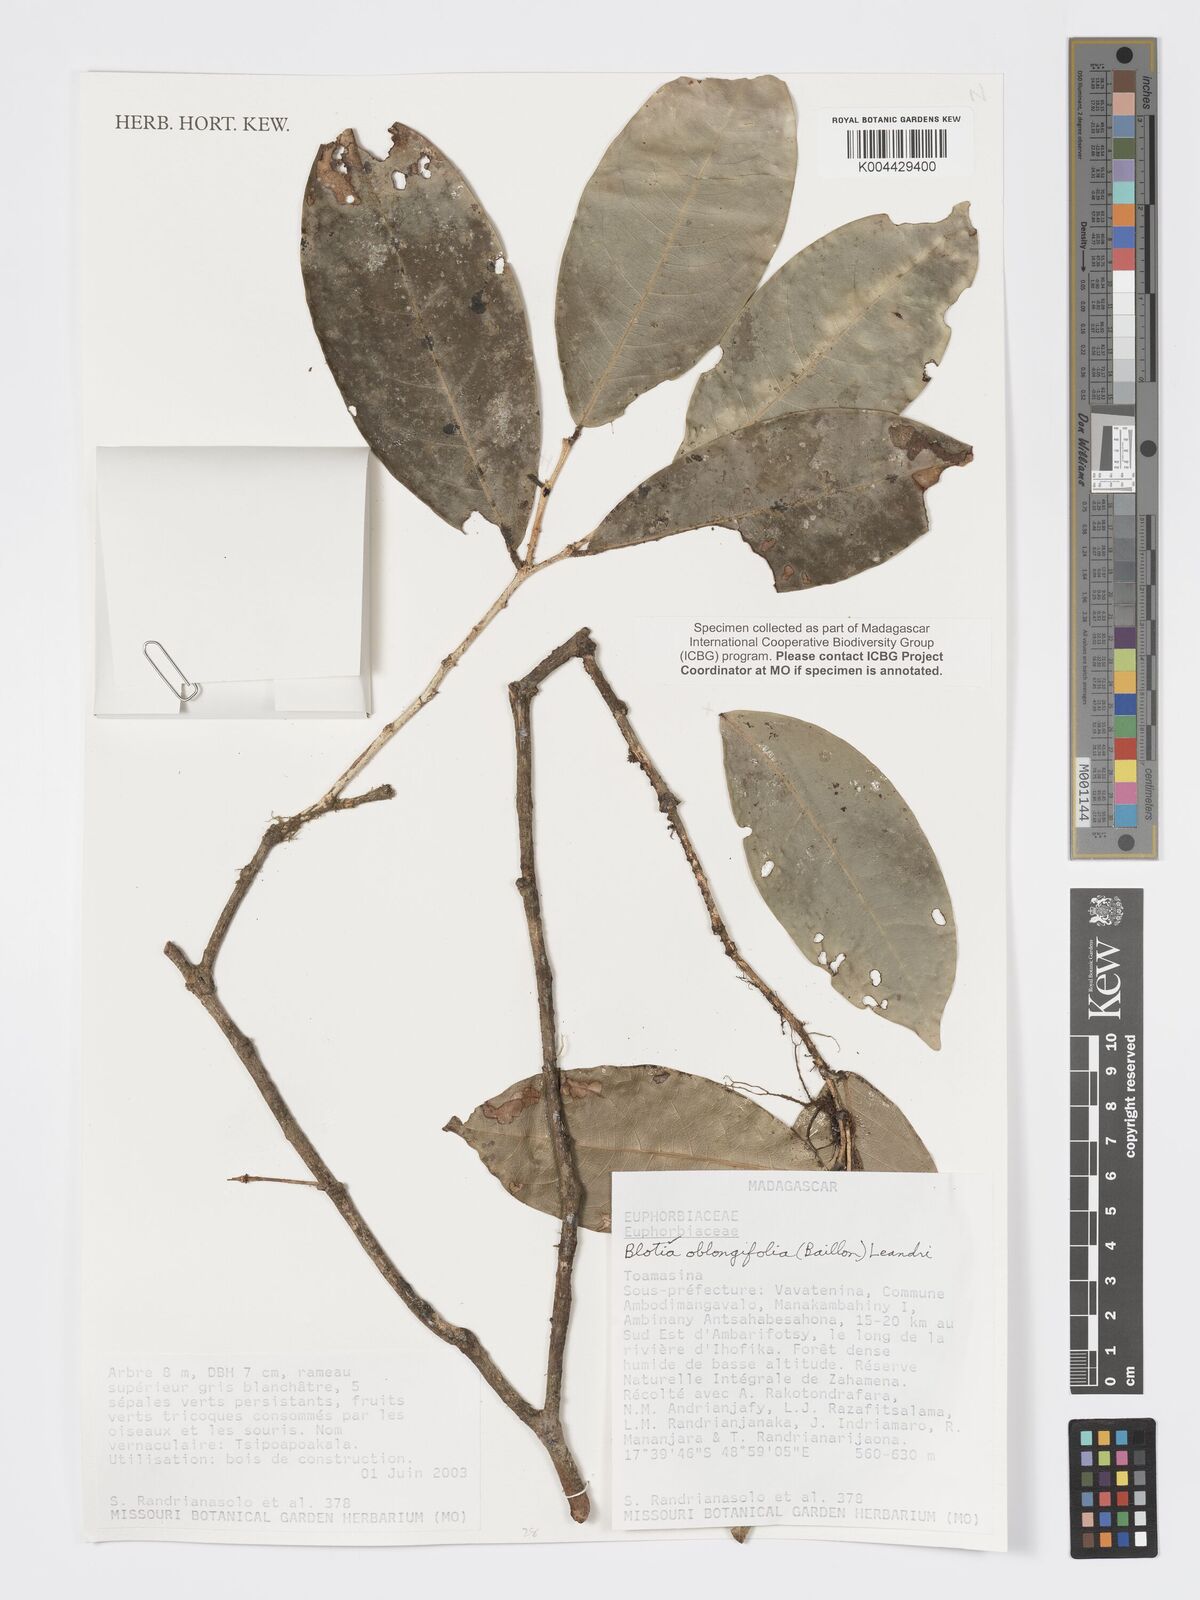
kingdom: Plantae
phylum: Tracheophyta
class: Magnoliopsida
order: Malpighiales
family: Phyllanthaceae
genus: Wielandia
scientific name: Wielandia oblongifolia
